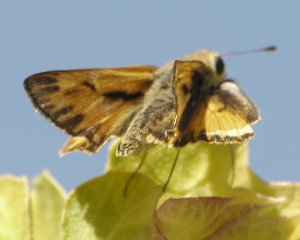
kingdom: Animalia
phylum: Arthropoda
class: Insecta
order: Lepidoptera
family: Hesperiidae
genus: Hylephila
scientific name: Hylephila phyleus
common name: Fiery Skipper
